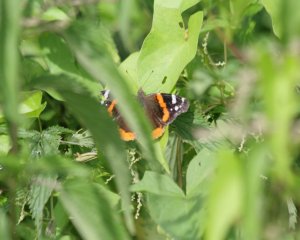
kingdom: Animalia
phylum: Arthropoda
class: Insecta
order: Lepidoptera
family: Nymphalidae
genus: Vanessa
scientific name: Vanessa atalanta
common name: Red Admiral
